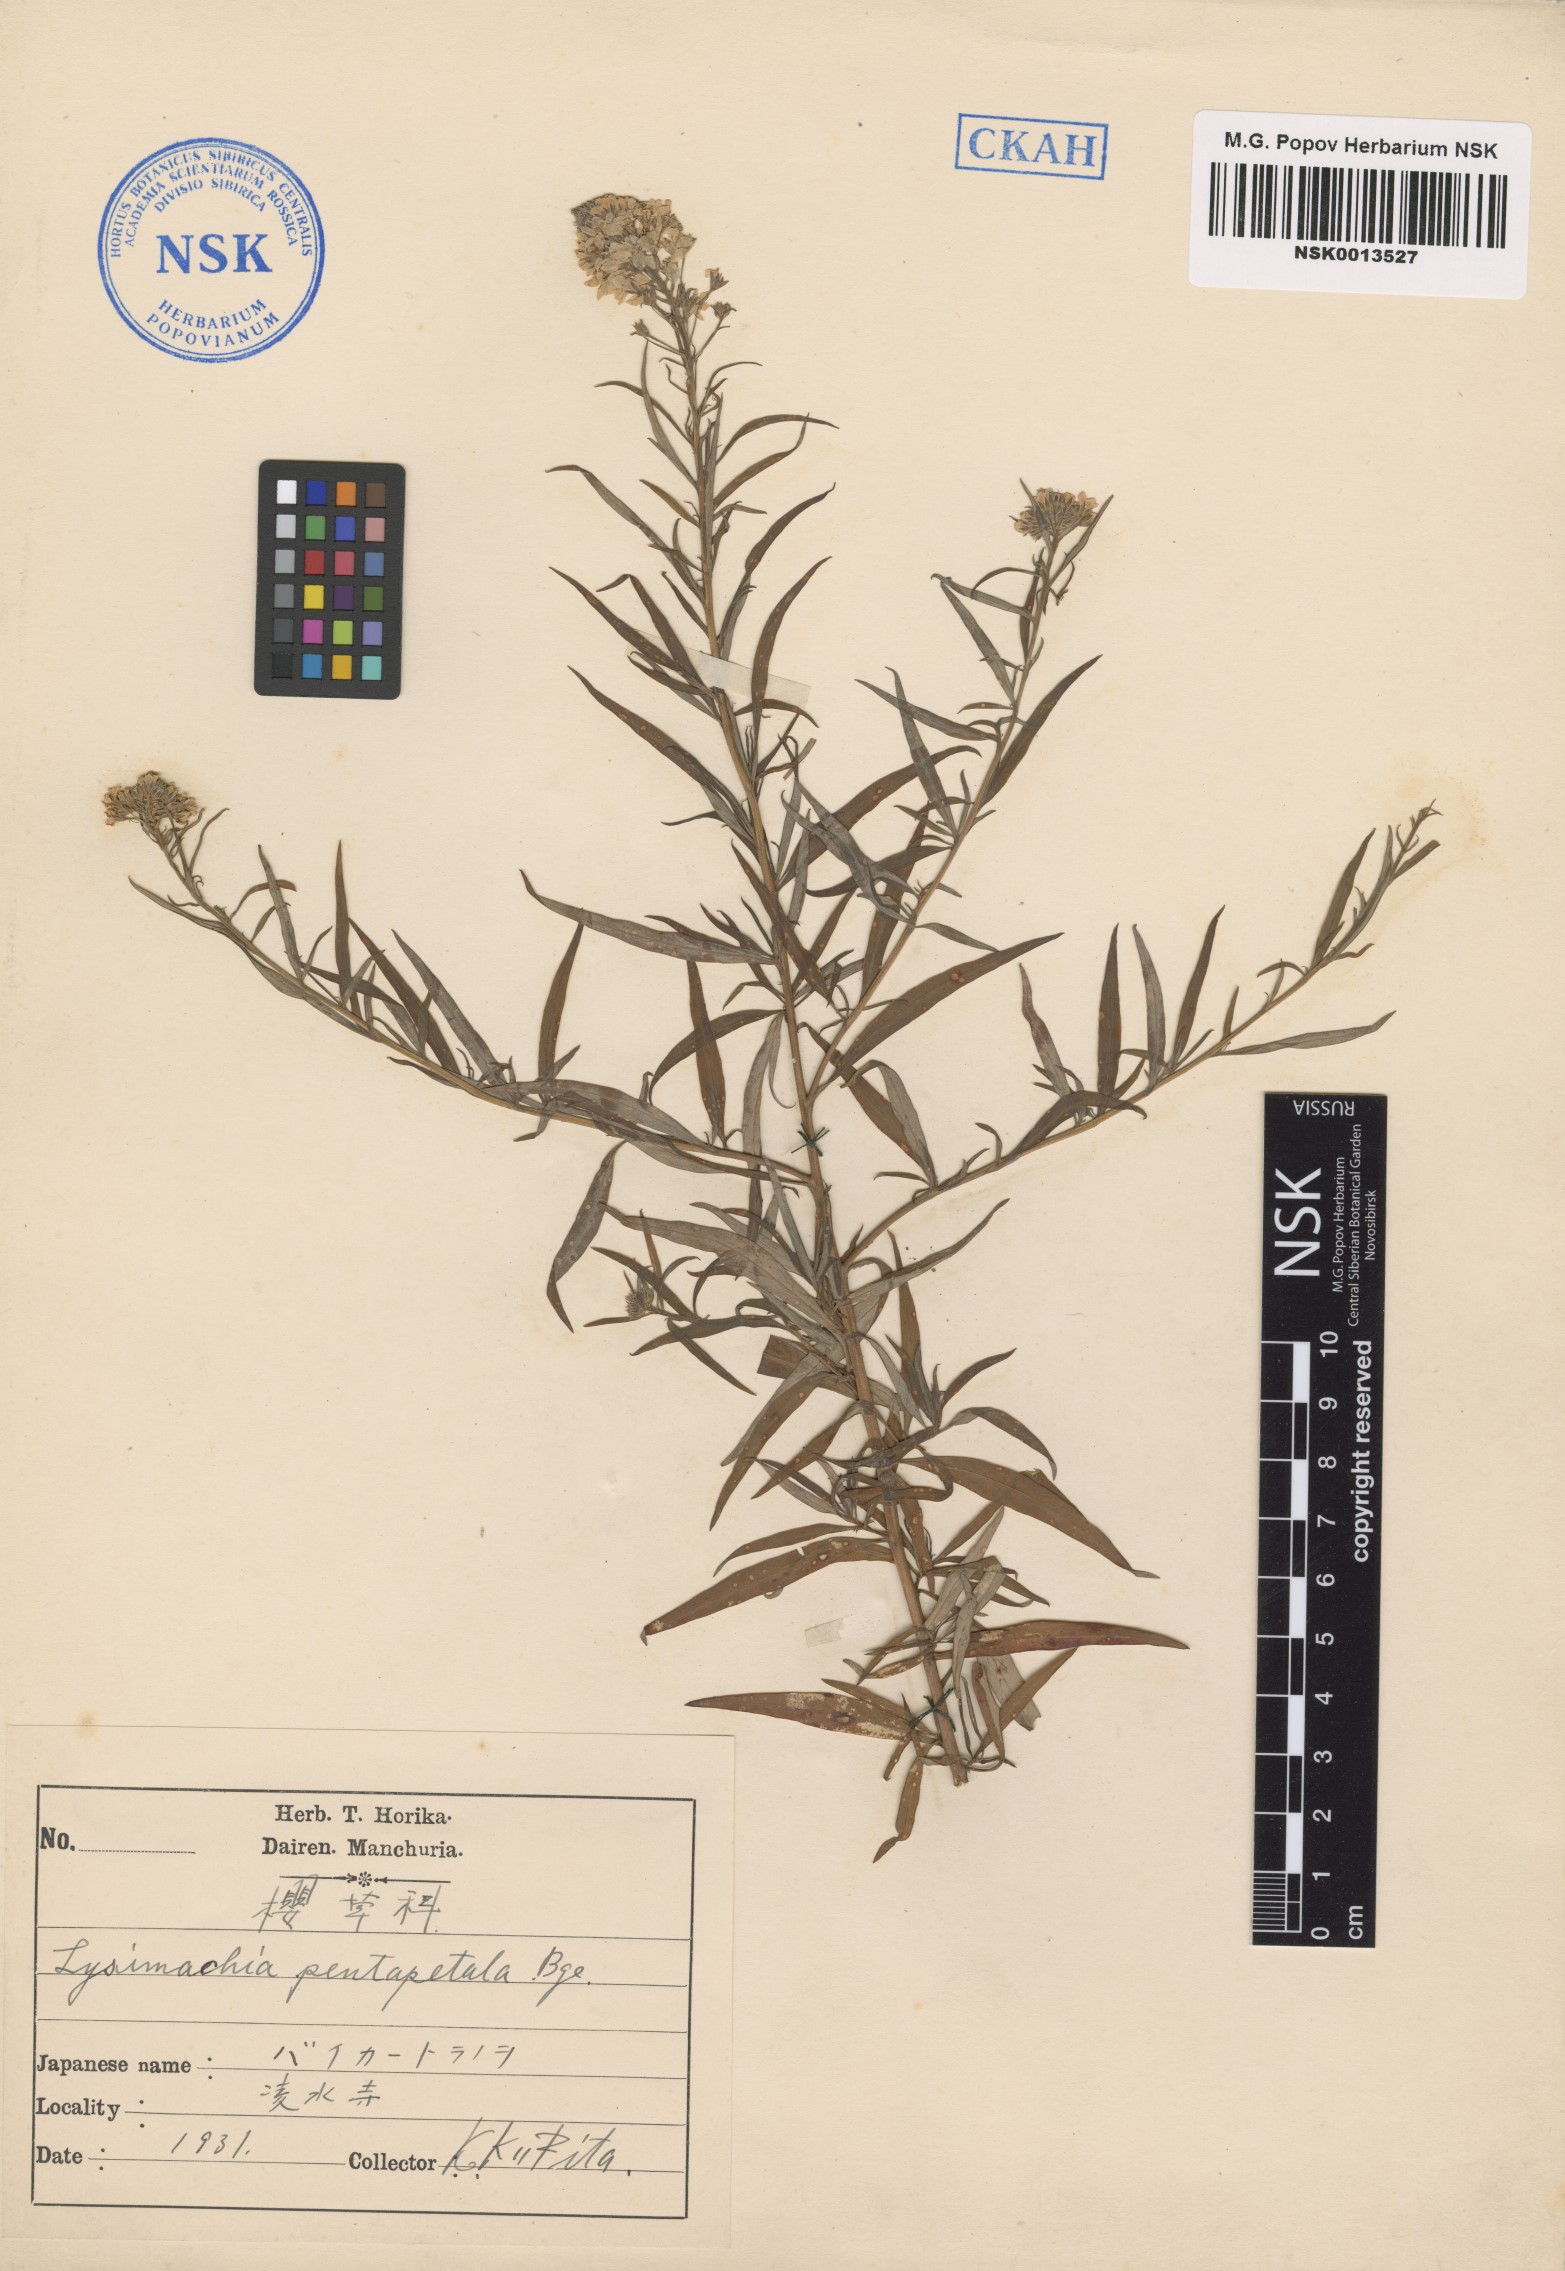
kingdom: Plantae
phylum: Tracheophyta
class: Magnoliopsida
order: Ericales
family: Primulaceae
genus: Lysimachia
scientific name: Lysimachia pentapetala
